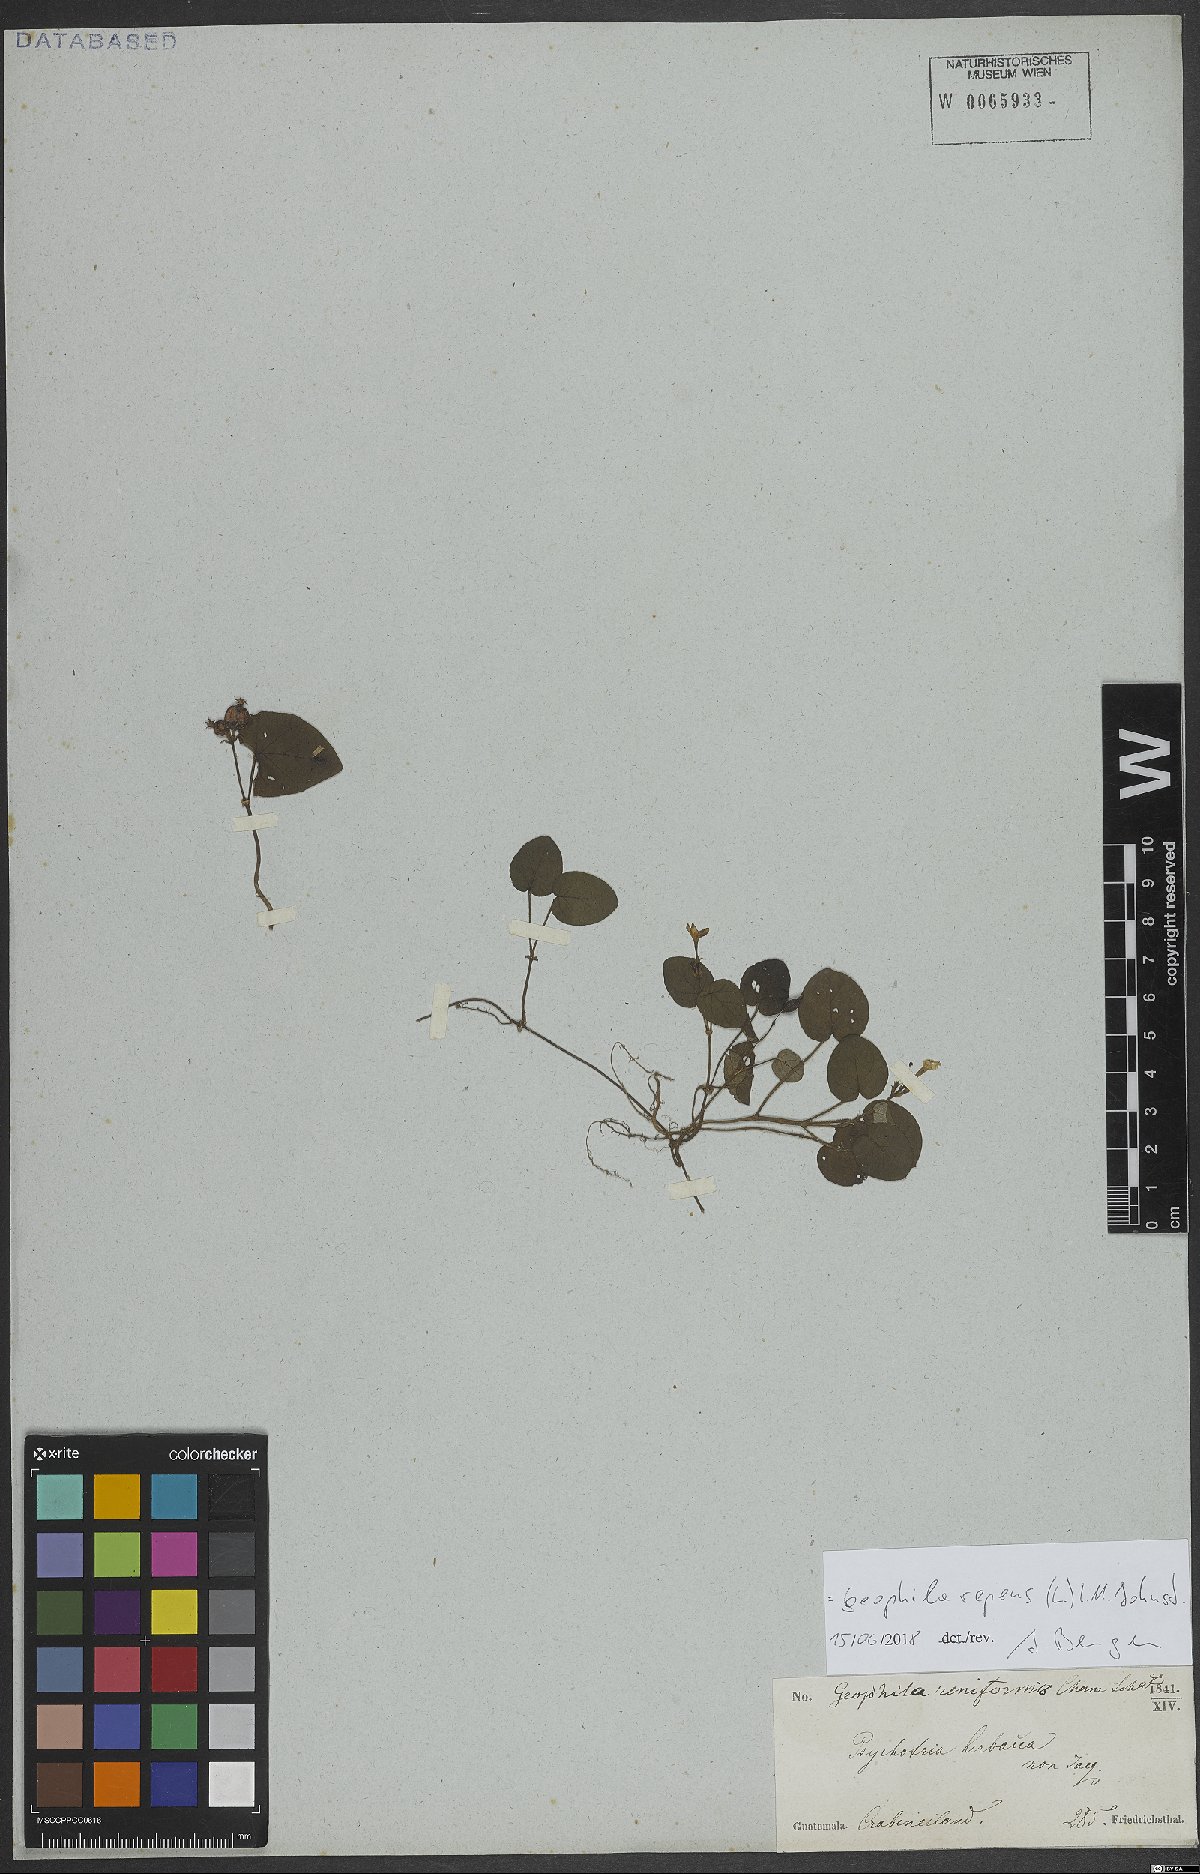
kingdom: Plantae
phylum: Tracheophyta
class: Magnoliopsida
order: Gentianales
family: Rubiaceae
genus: Geophila
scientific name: Geophila repens
